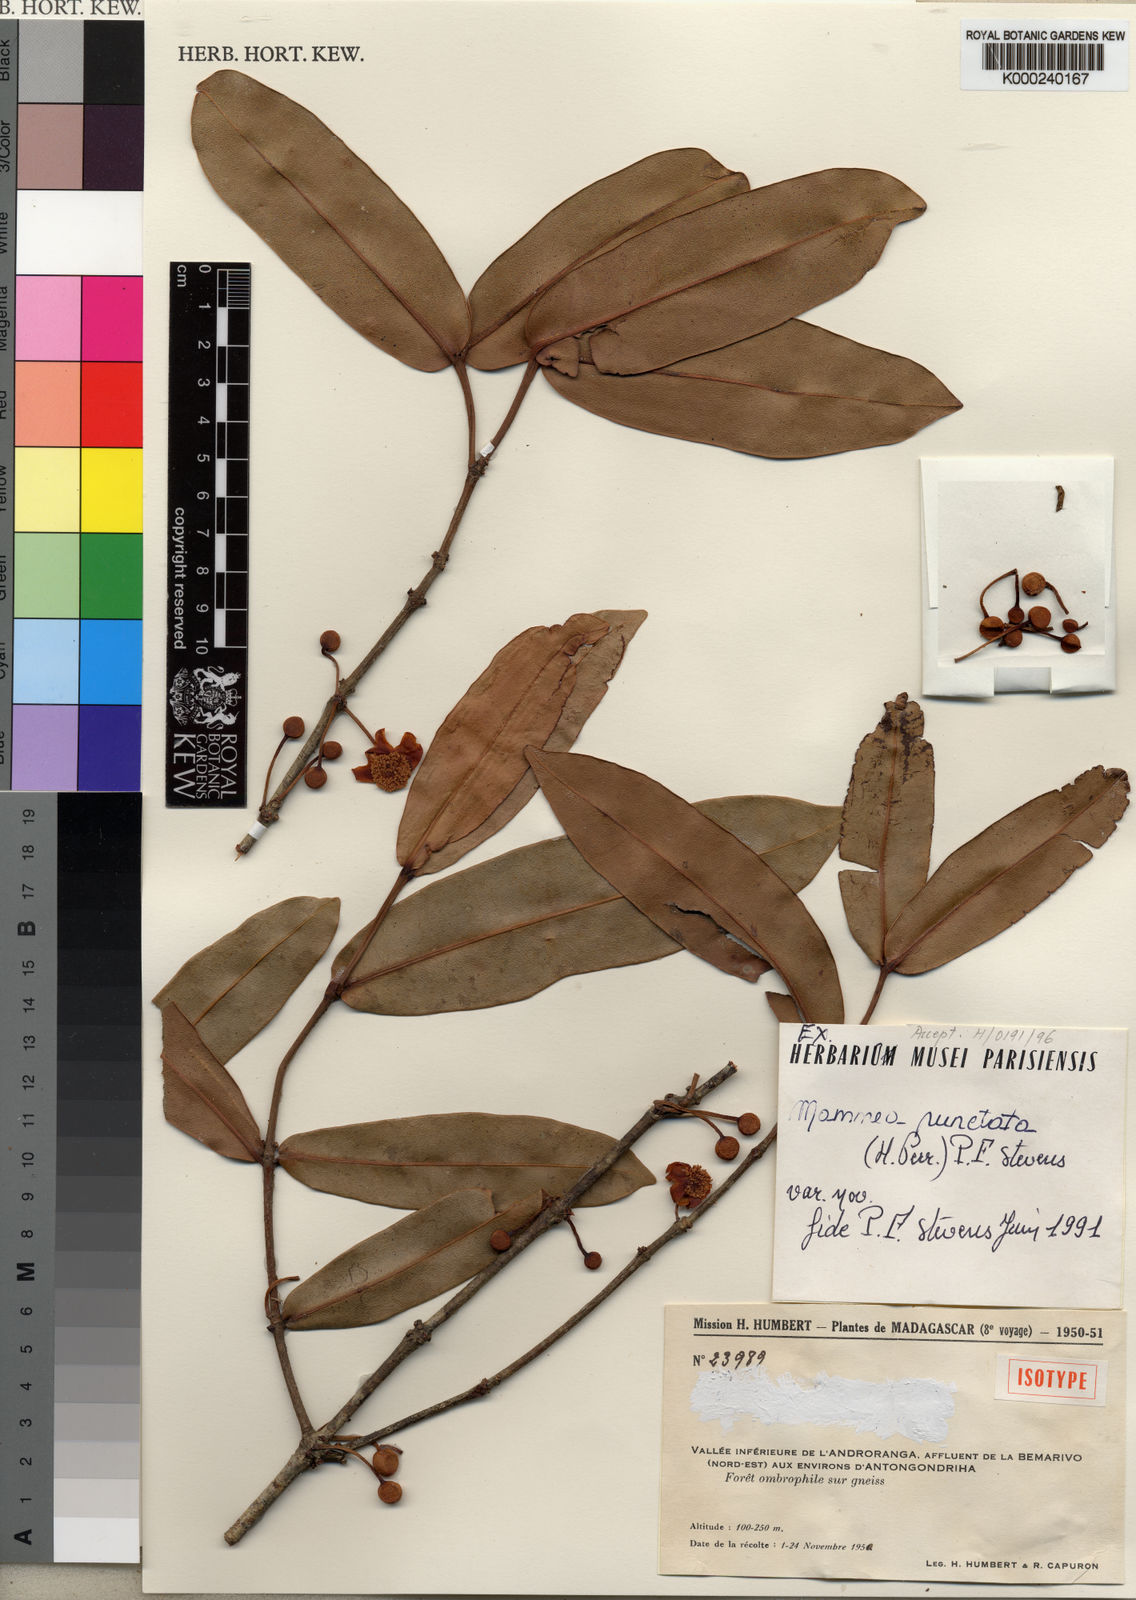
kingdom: Plantae
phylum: Tracheophyta
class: Magnoliopsida
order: Malpighiales
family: Calophyllaceae
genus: Mammea
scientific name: Mammea punctata
